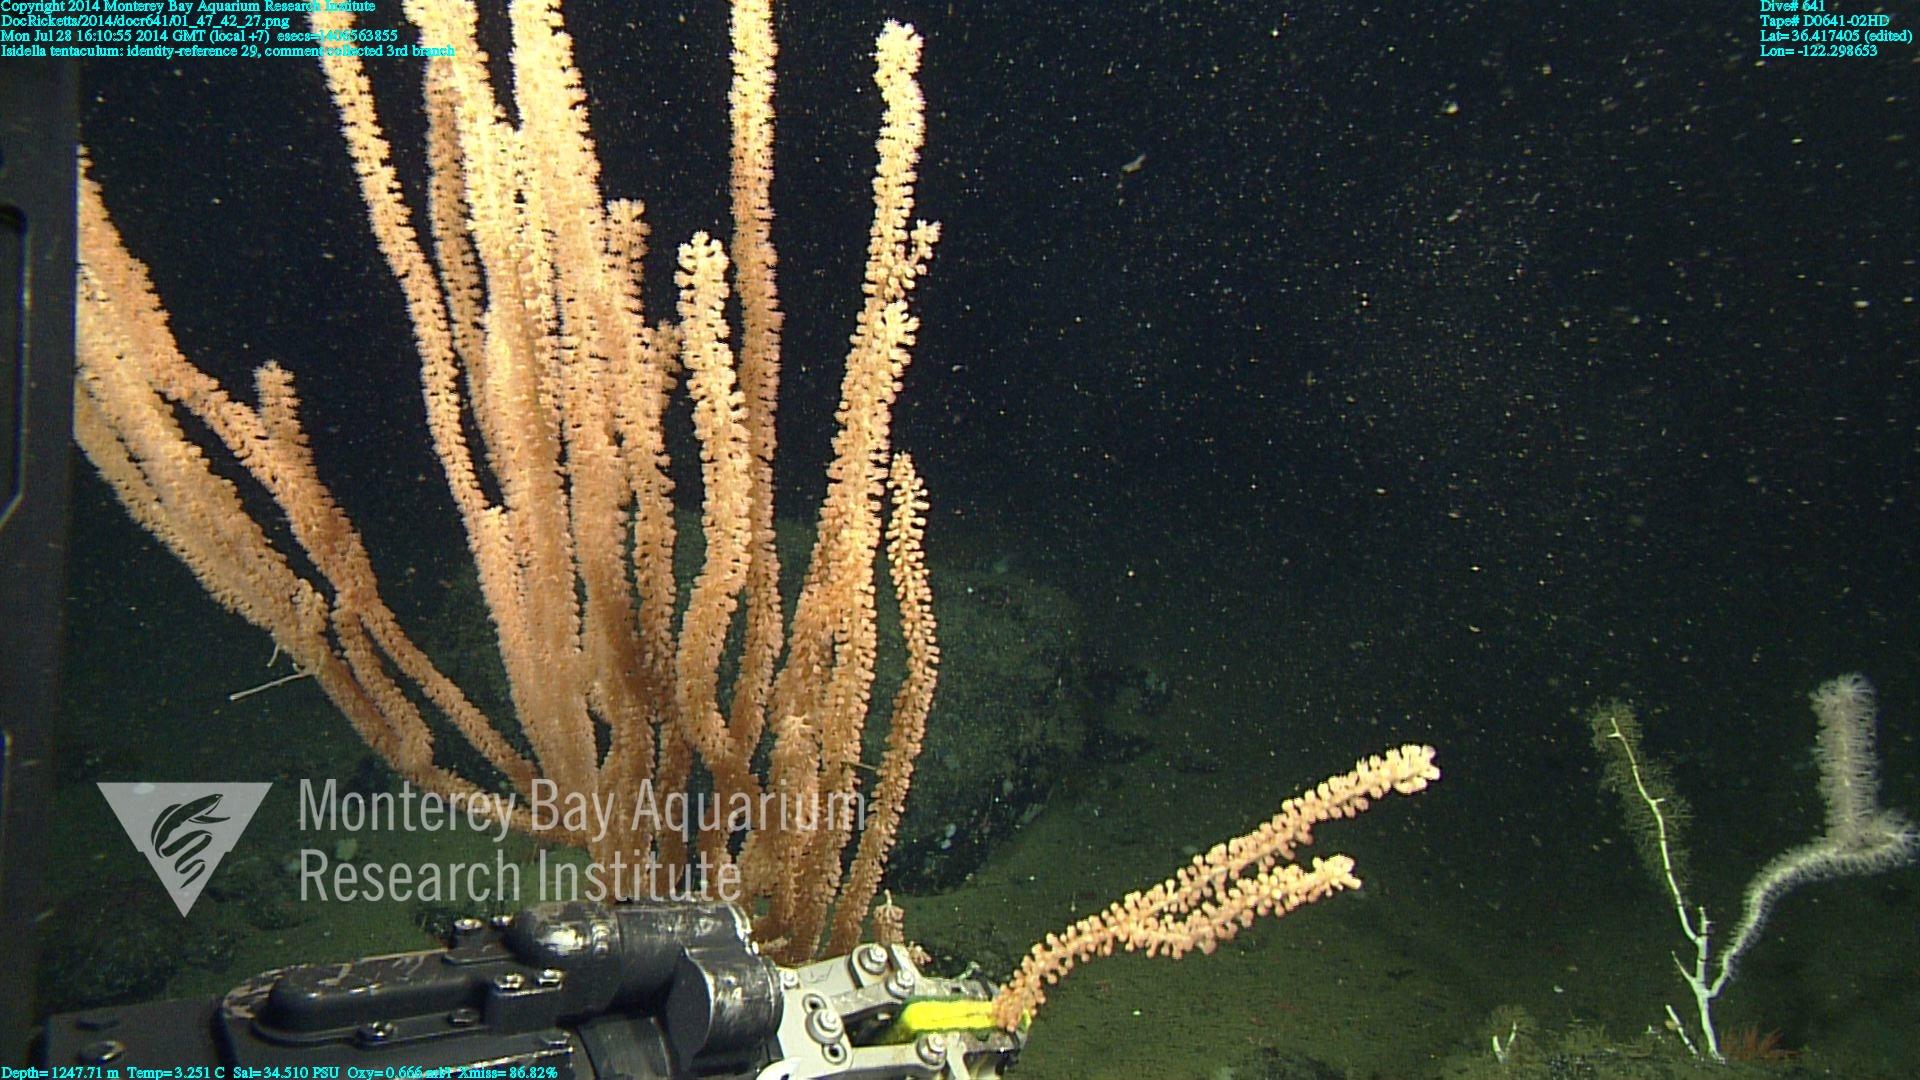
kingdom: Animalia
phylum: Cnidaria
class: Anthozoa
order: Scleralcyonacea
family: Keratoisididae
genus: Isidella
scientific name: Isidella tentaculum
